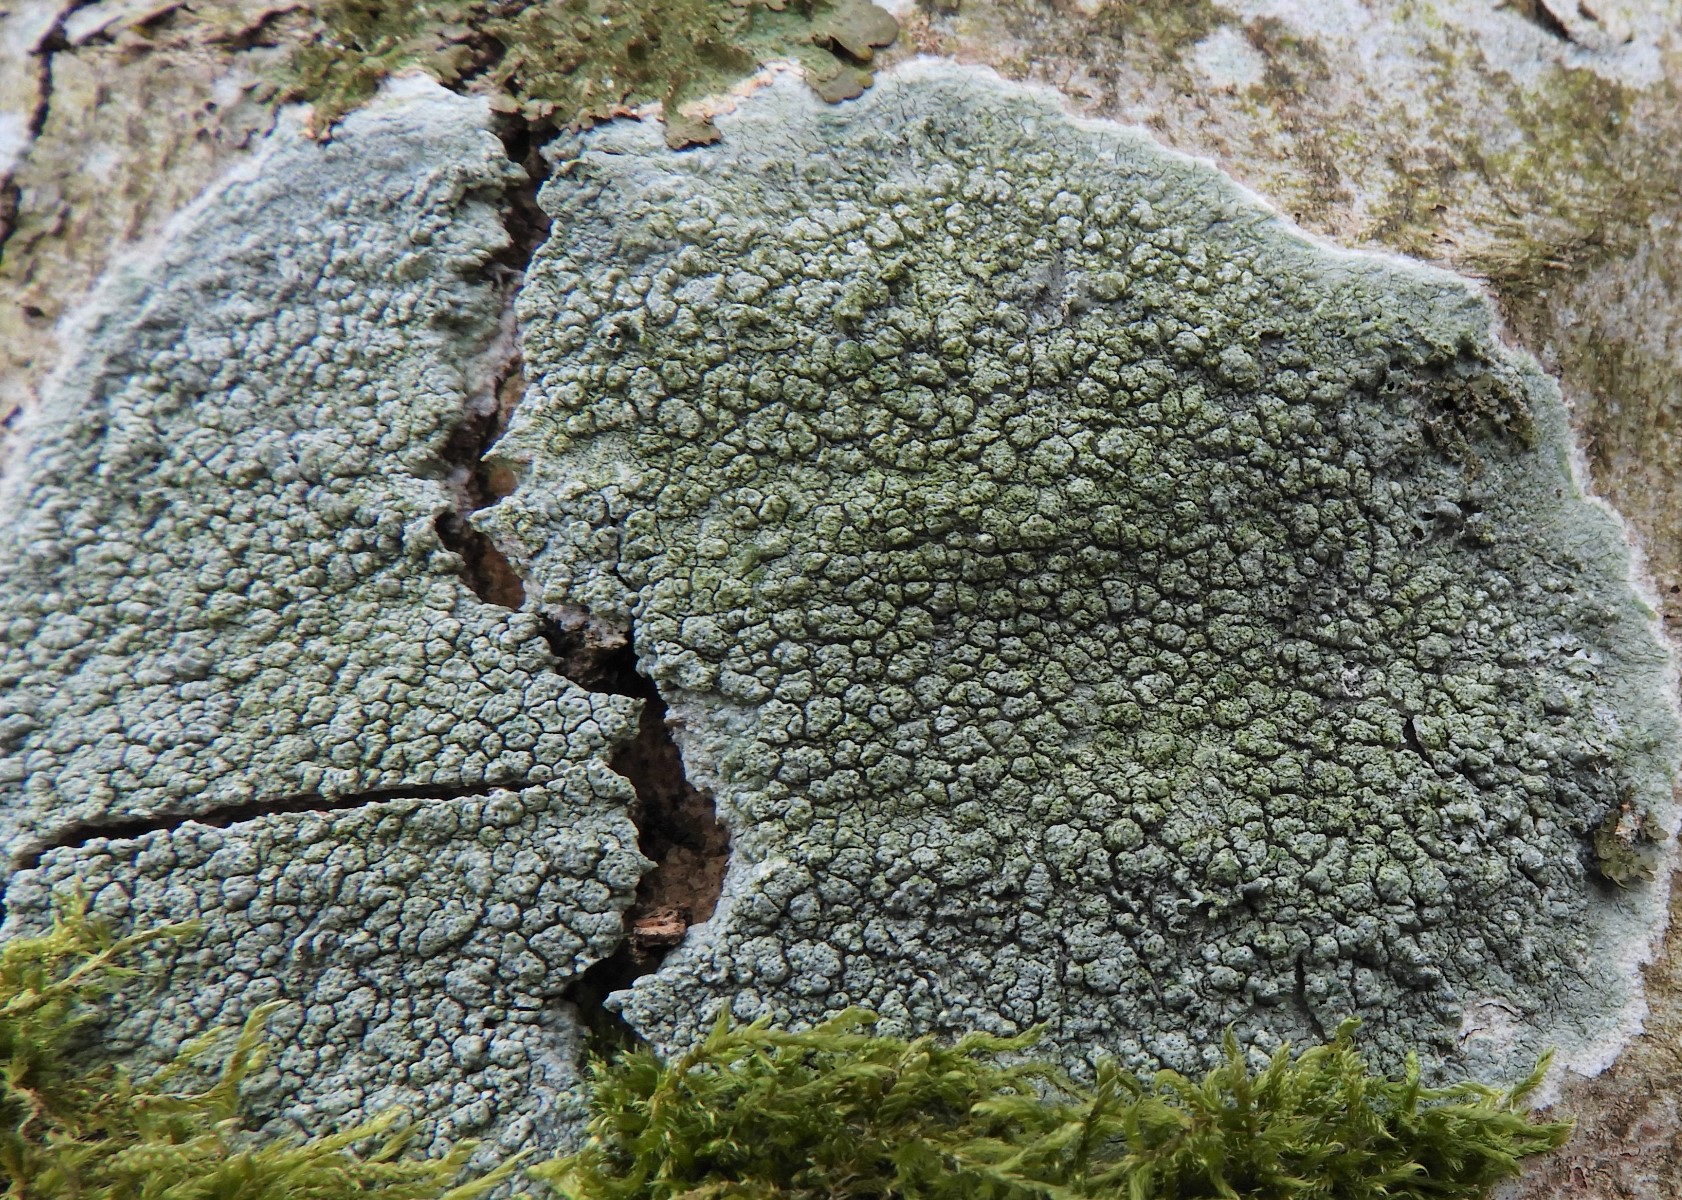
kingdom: Fungi
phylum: Ascomycota
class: Lecanoromycetes
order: Pertusariales
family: Pertusariaceae
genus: Pertusaria
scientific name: Pertusaria pertusa
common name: almindelig prikvortelav
